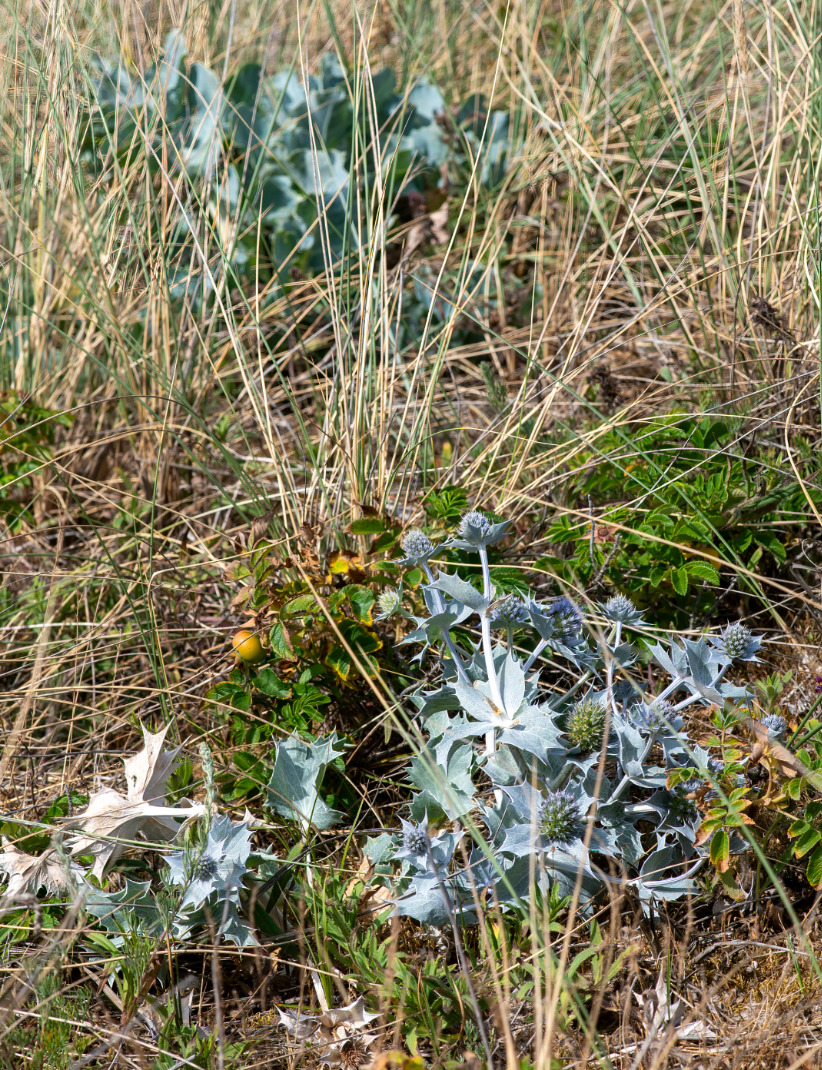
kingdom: Plantae
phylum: Tracheophyta
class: Magnoliopsida
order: Apiales
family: Apiaceae
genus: Eryngium
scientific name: Eryngium maritimum
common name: Strand-mandstro
